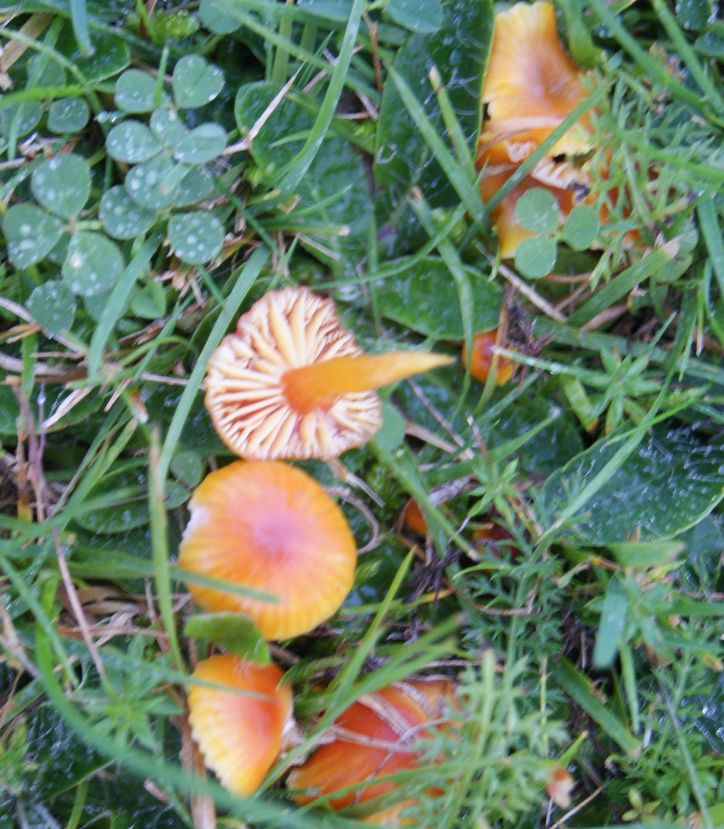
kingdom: Fungi
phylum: Basidiomycota
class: Agaricomycetes
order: Agaricales
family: Hygrophoraceae
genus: Hygrocybe
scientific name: Hygrocybe insipida
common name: liden vokshat
